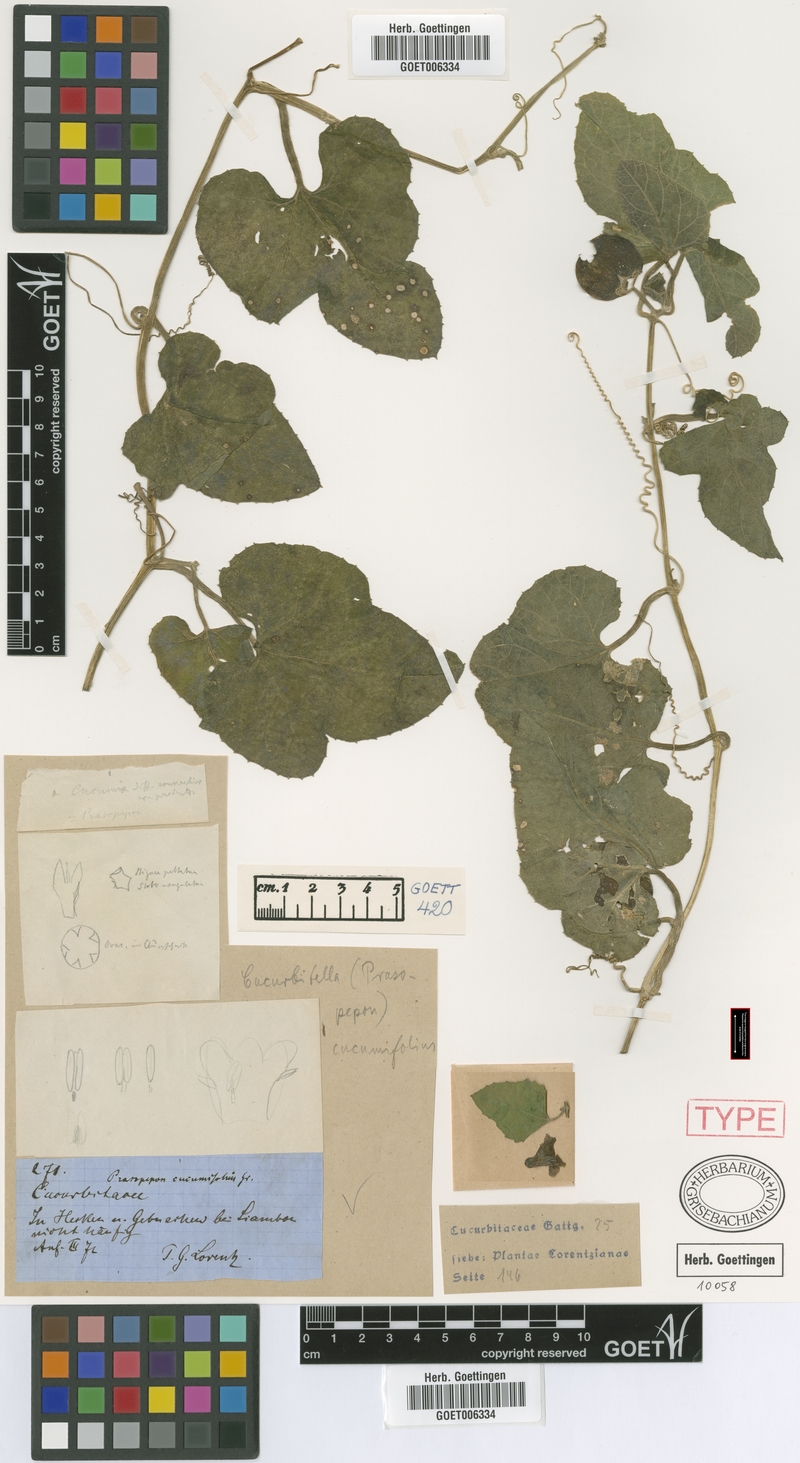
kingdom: Plantae
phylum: Tracheophyta
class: Magnoliopsida
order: Cucurbitales
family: Cucurbitaceae
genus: Cucurbitella
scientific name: Cucurbitella asperata
